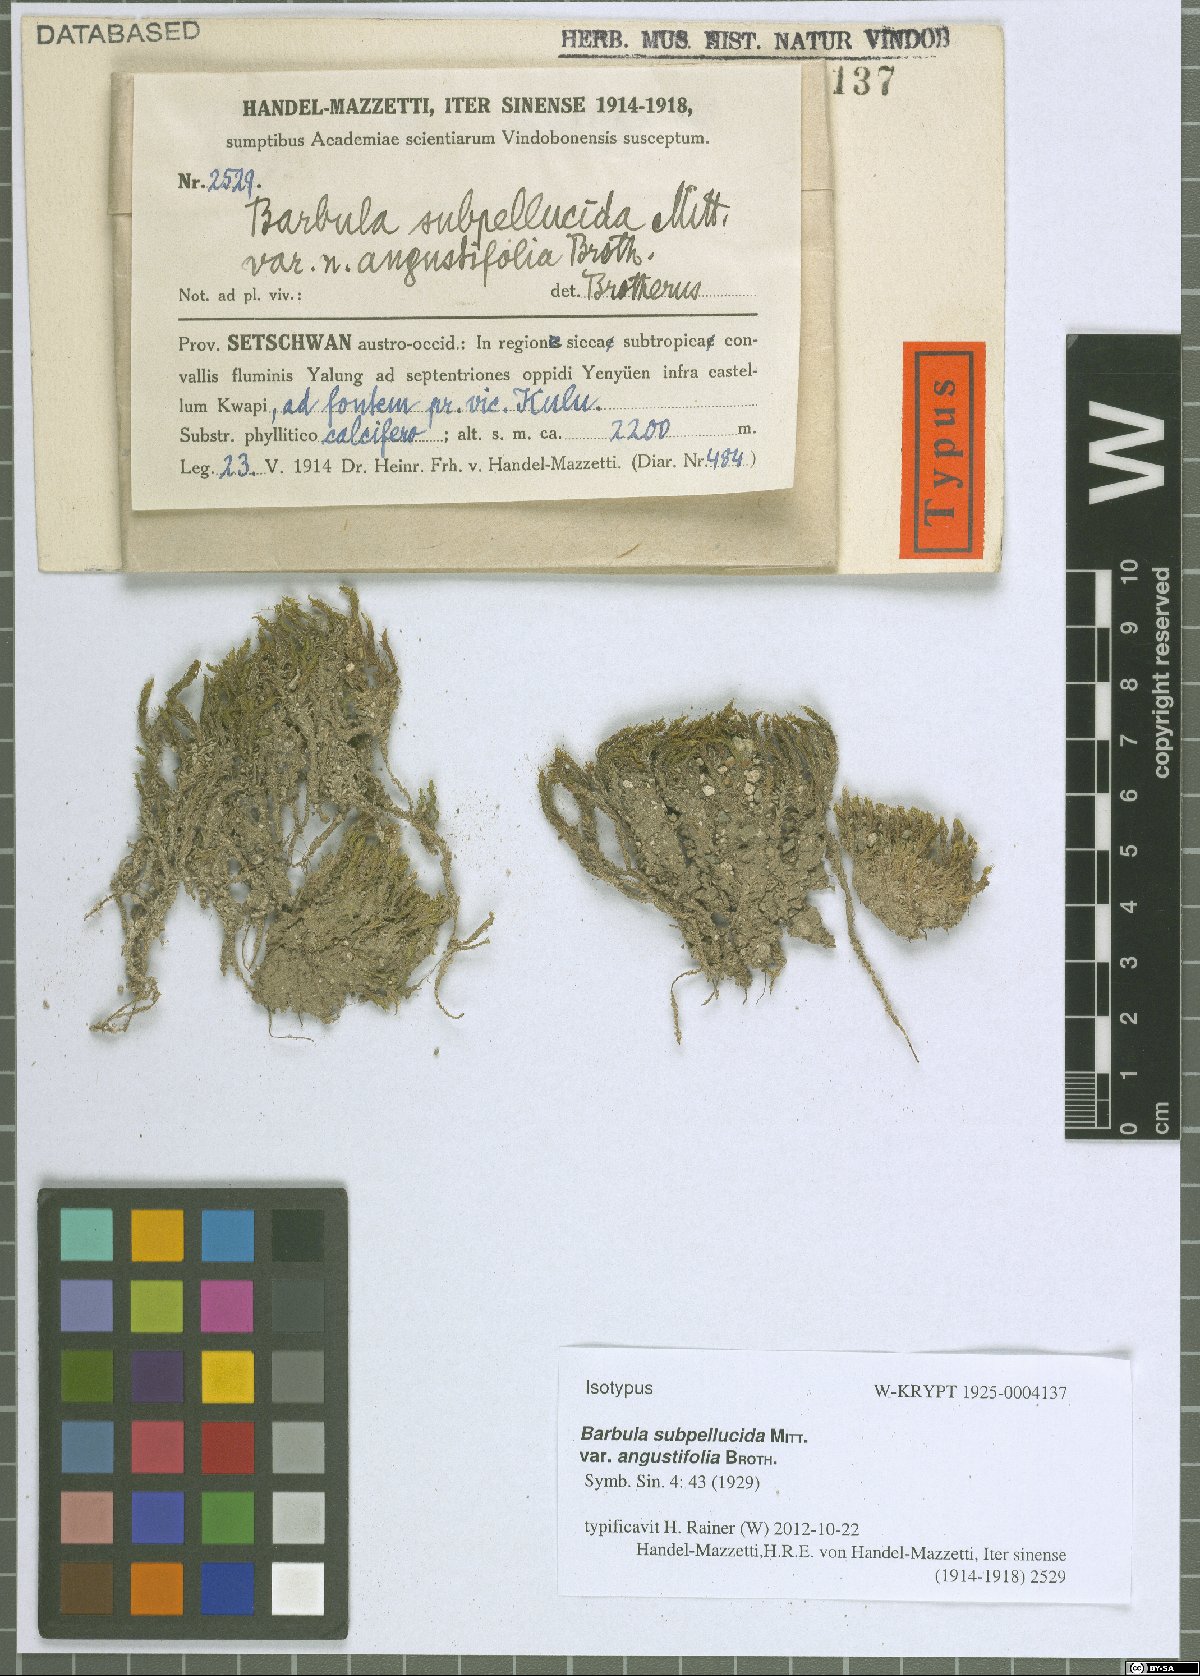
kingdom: Plantae
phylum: Bryophyta
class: Bryopsida
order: Pottiales
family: Pottiaceae
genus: Hydrogonium
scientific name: Hydrogonium subcomosum
